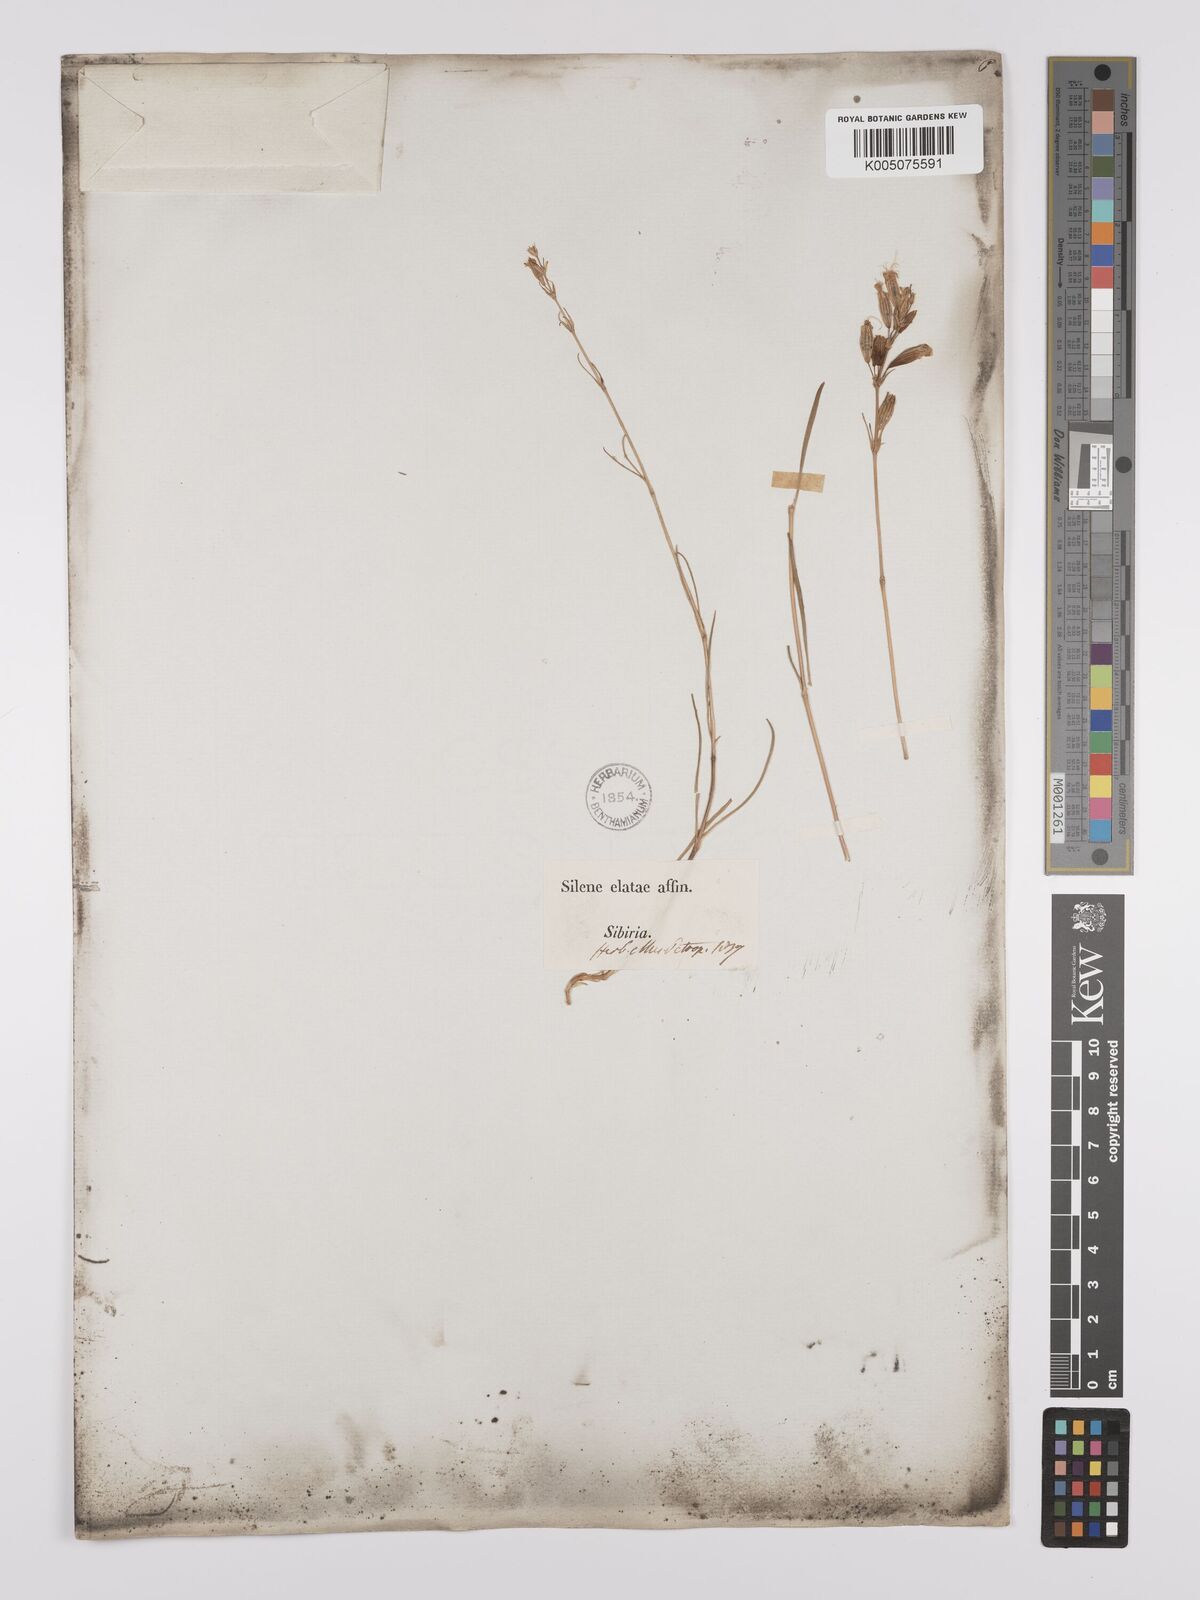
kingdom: Plantae
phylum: Tracheophyta
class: Magnoliopsida
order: Caryophyllales
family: Caryophyllaceae
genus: Silene
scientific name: Silene
